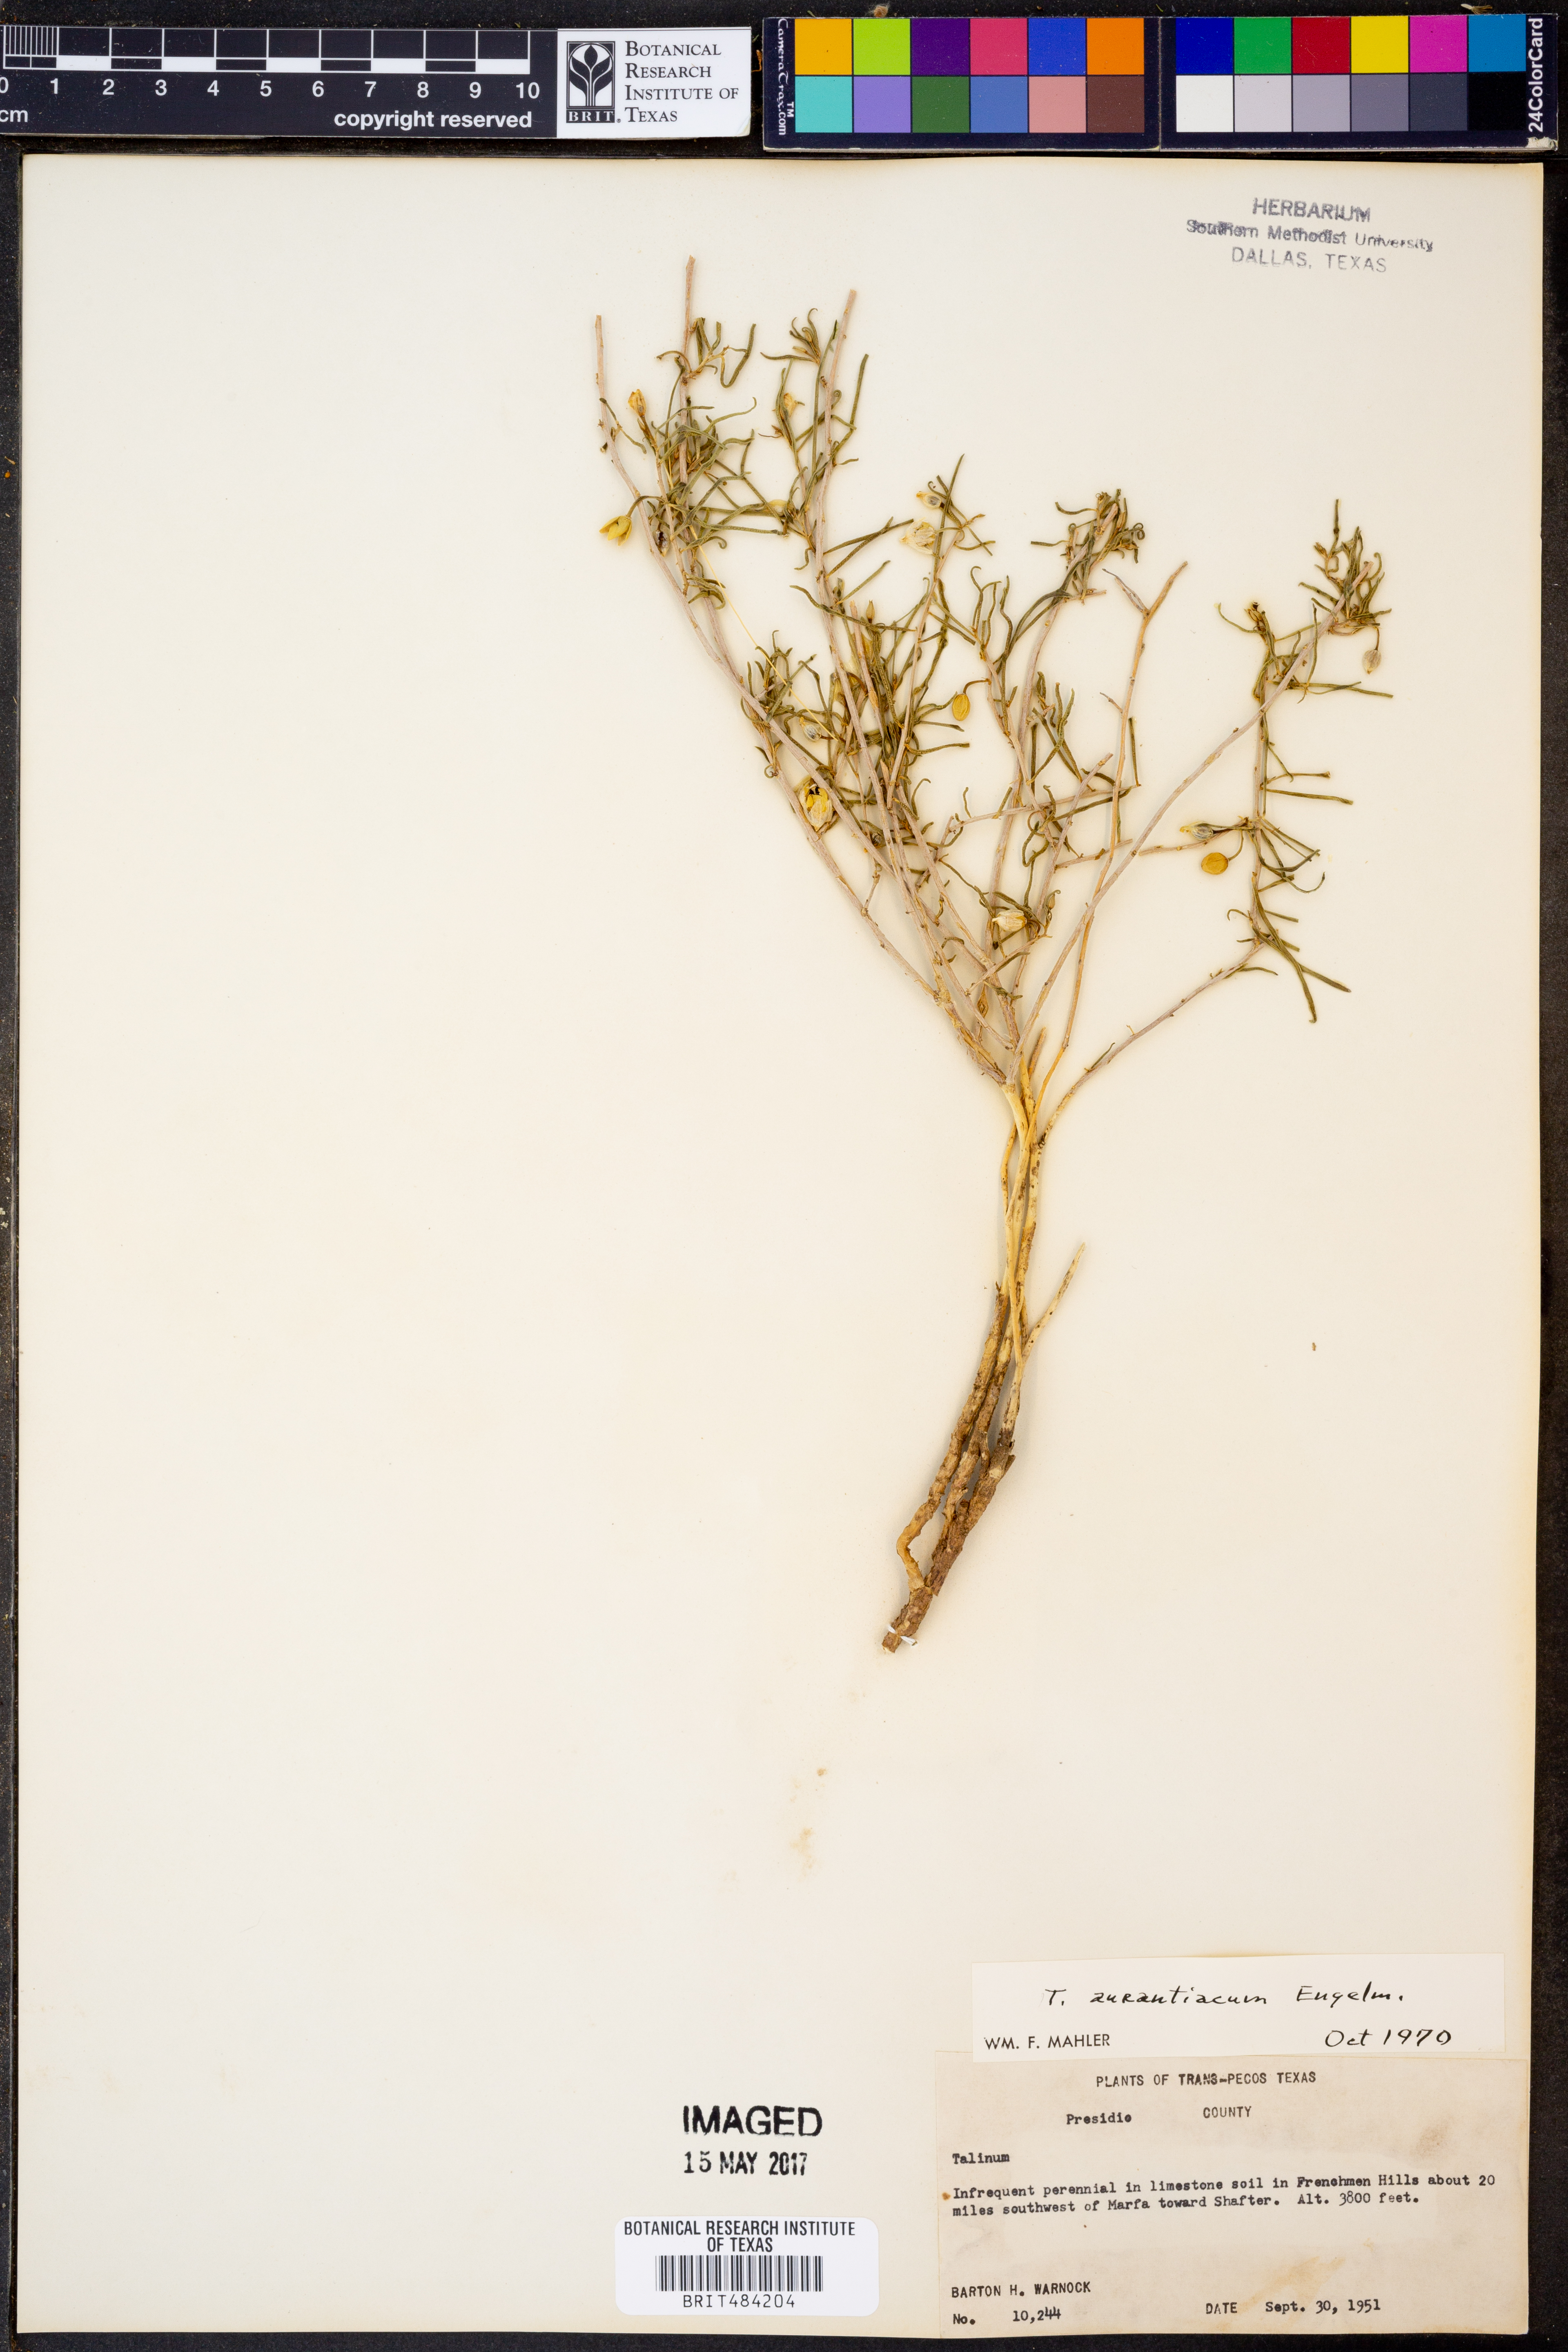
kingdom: Plantae
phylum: Tracheophyta
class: Magnoliopsida
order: Caryophyllales
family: Montiaceae
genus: Phemeranthus
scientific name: Phemeranthus aurantiacus
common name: Orange fameflower
